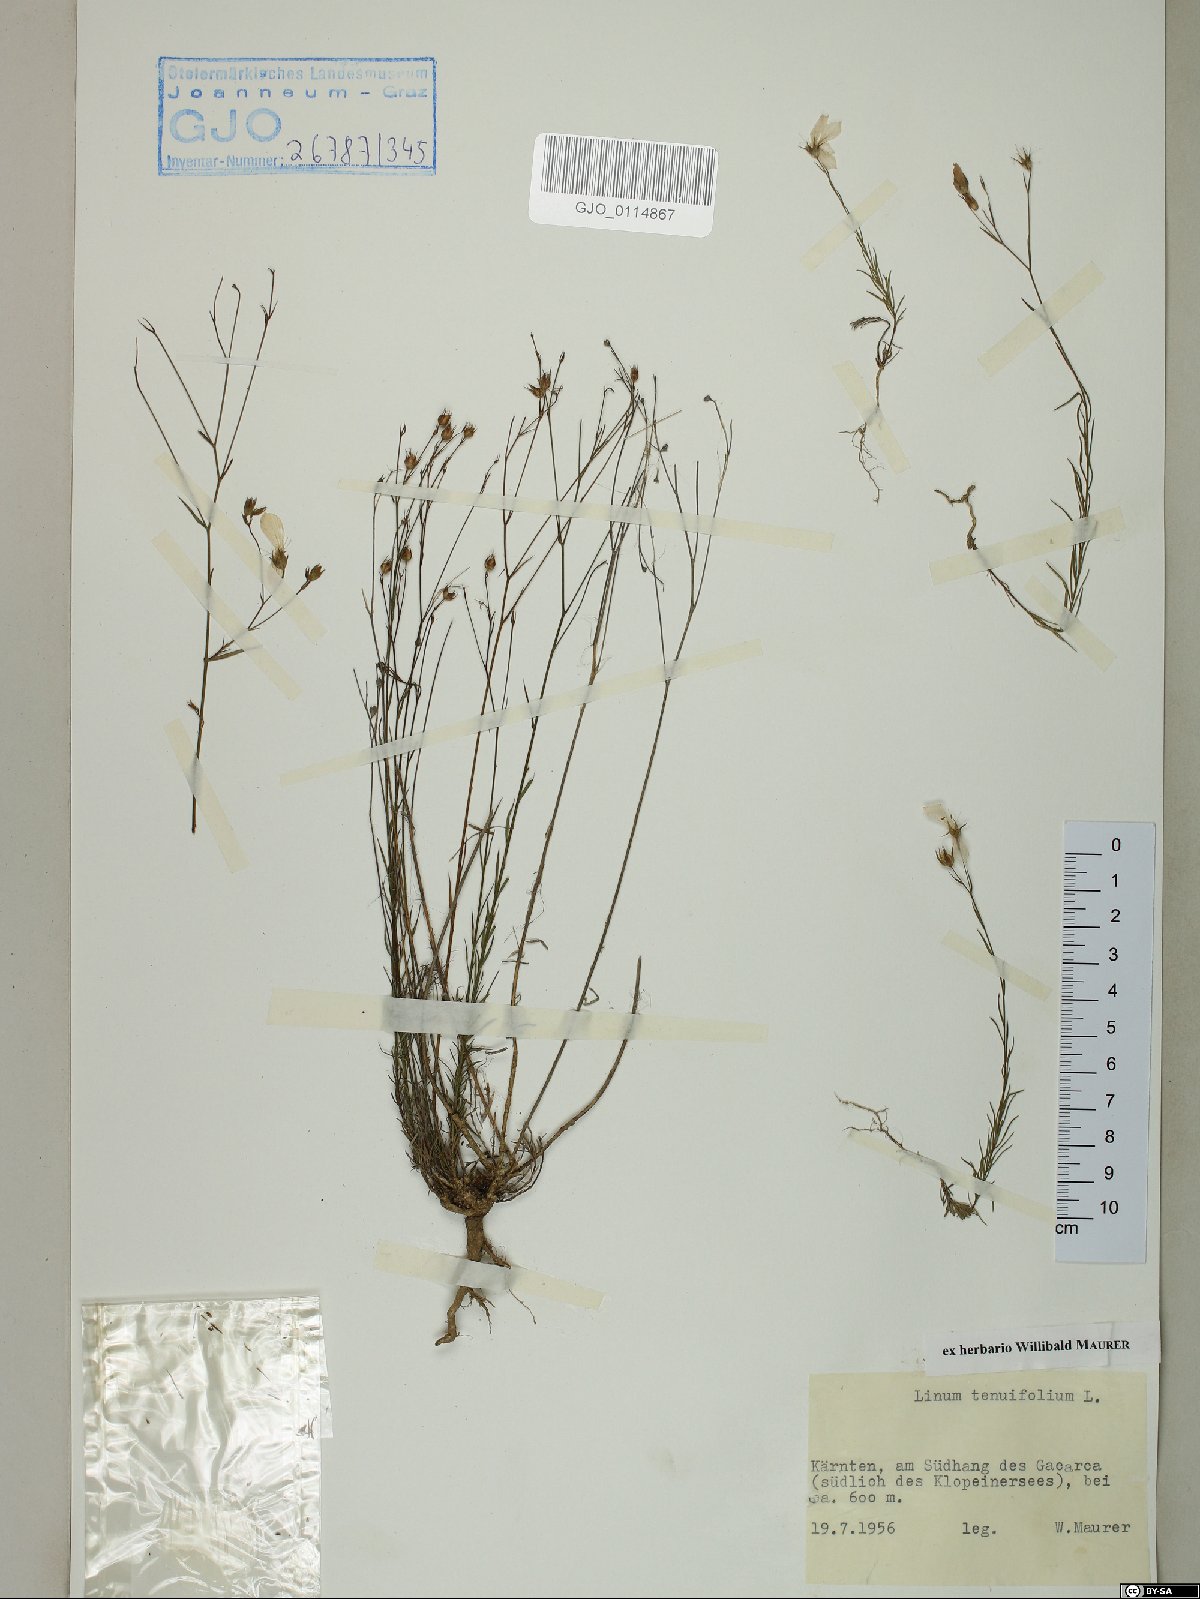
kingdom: Plantae
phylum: Tracheophyta
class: Magnoliopsida
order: Malpighiales
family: Linaceae
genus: Linum
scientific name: Linum tenuifolium
